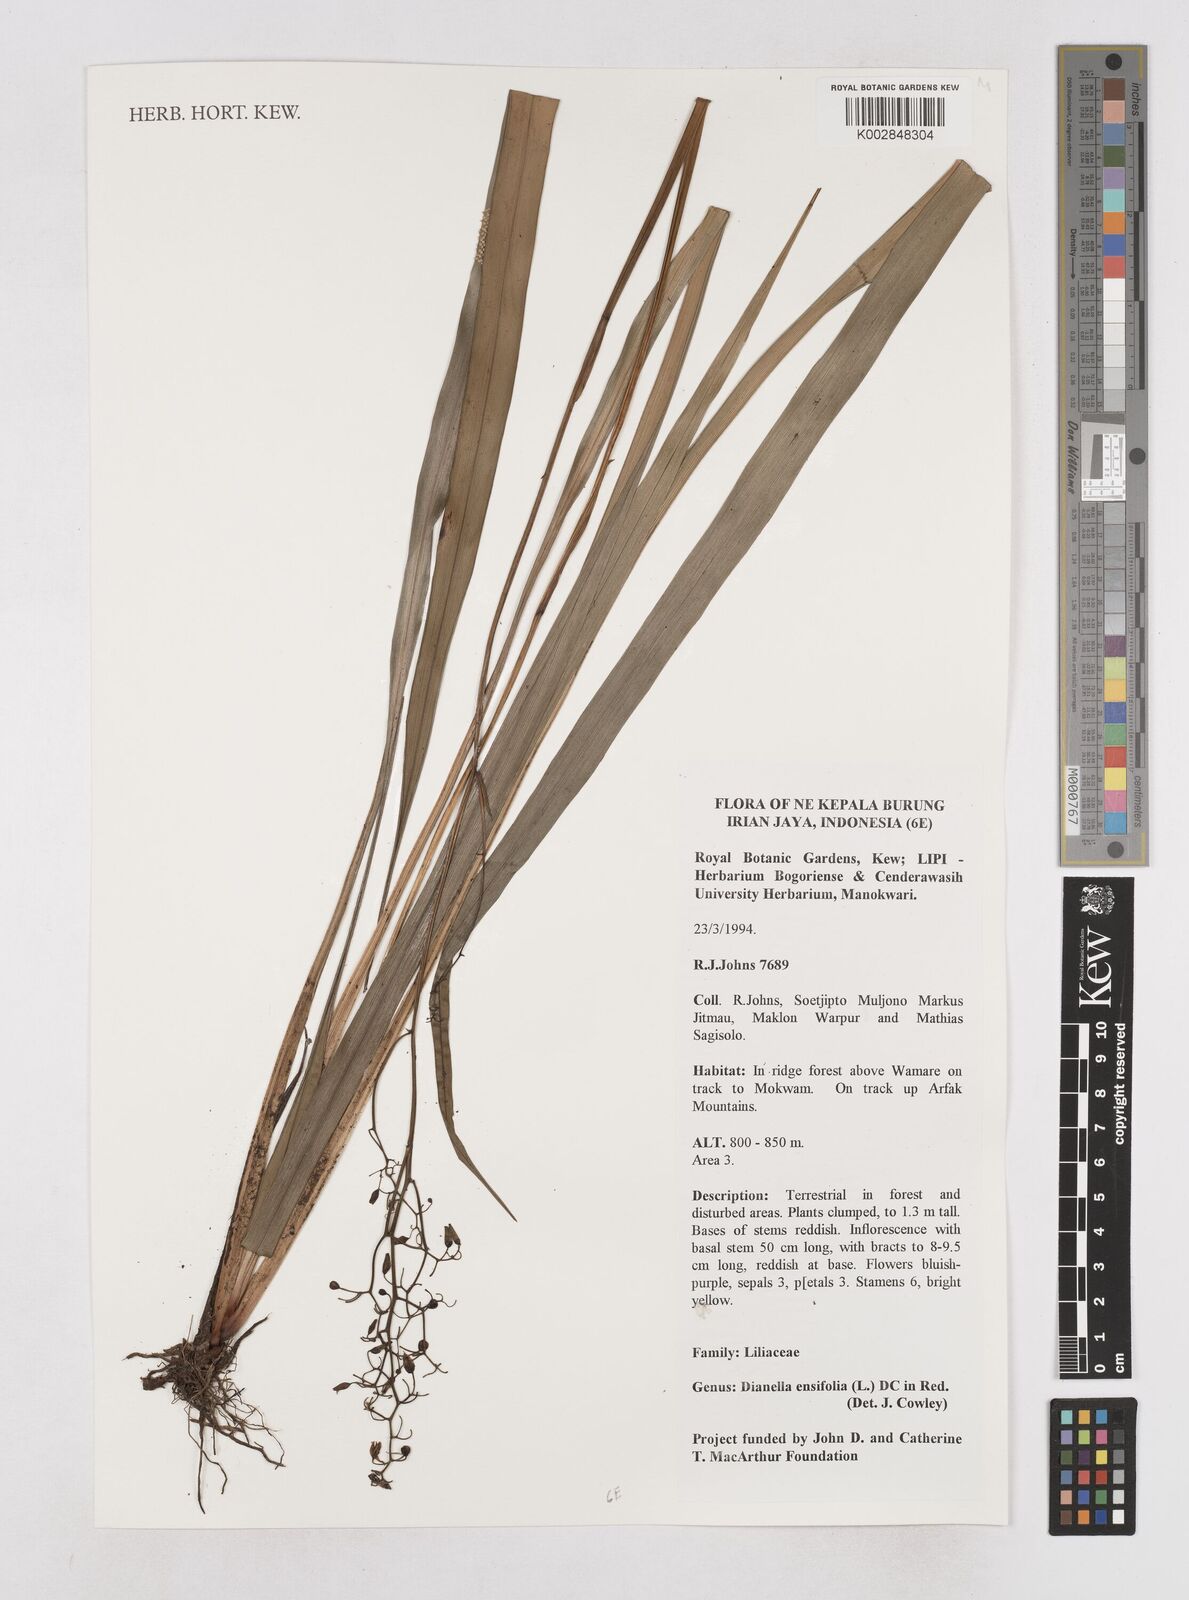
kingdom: Plantae
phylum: Tracheophyta
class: Liliopsida
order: Asparagales
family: Asphodelaceae
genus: Dianella
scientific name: Dianella ensifolia
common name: New zealand lilyplant
